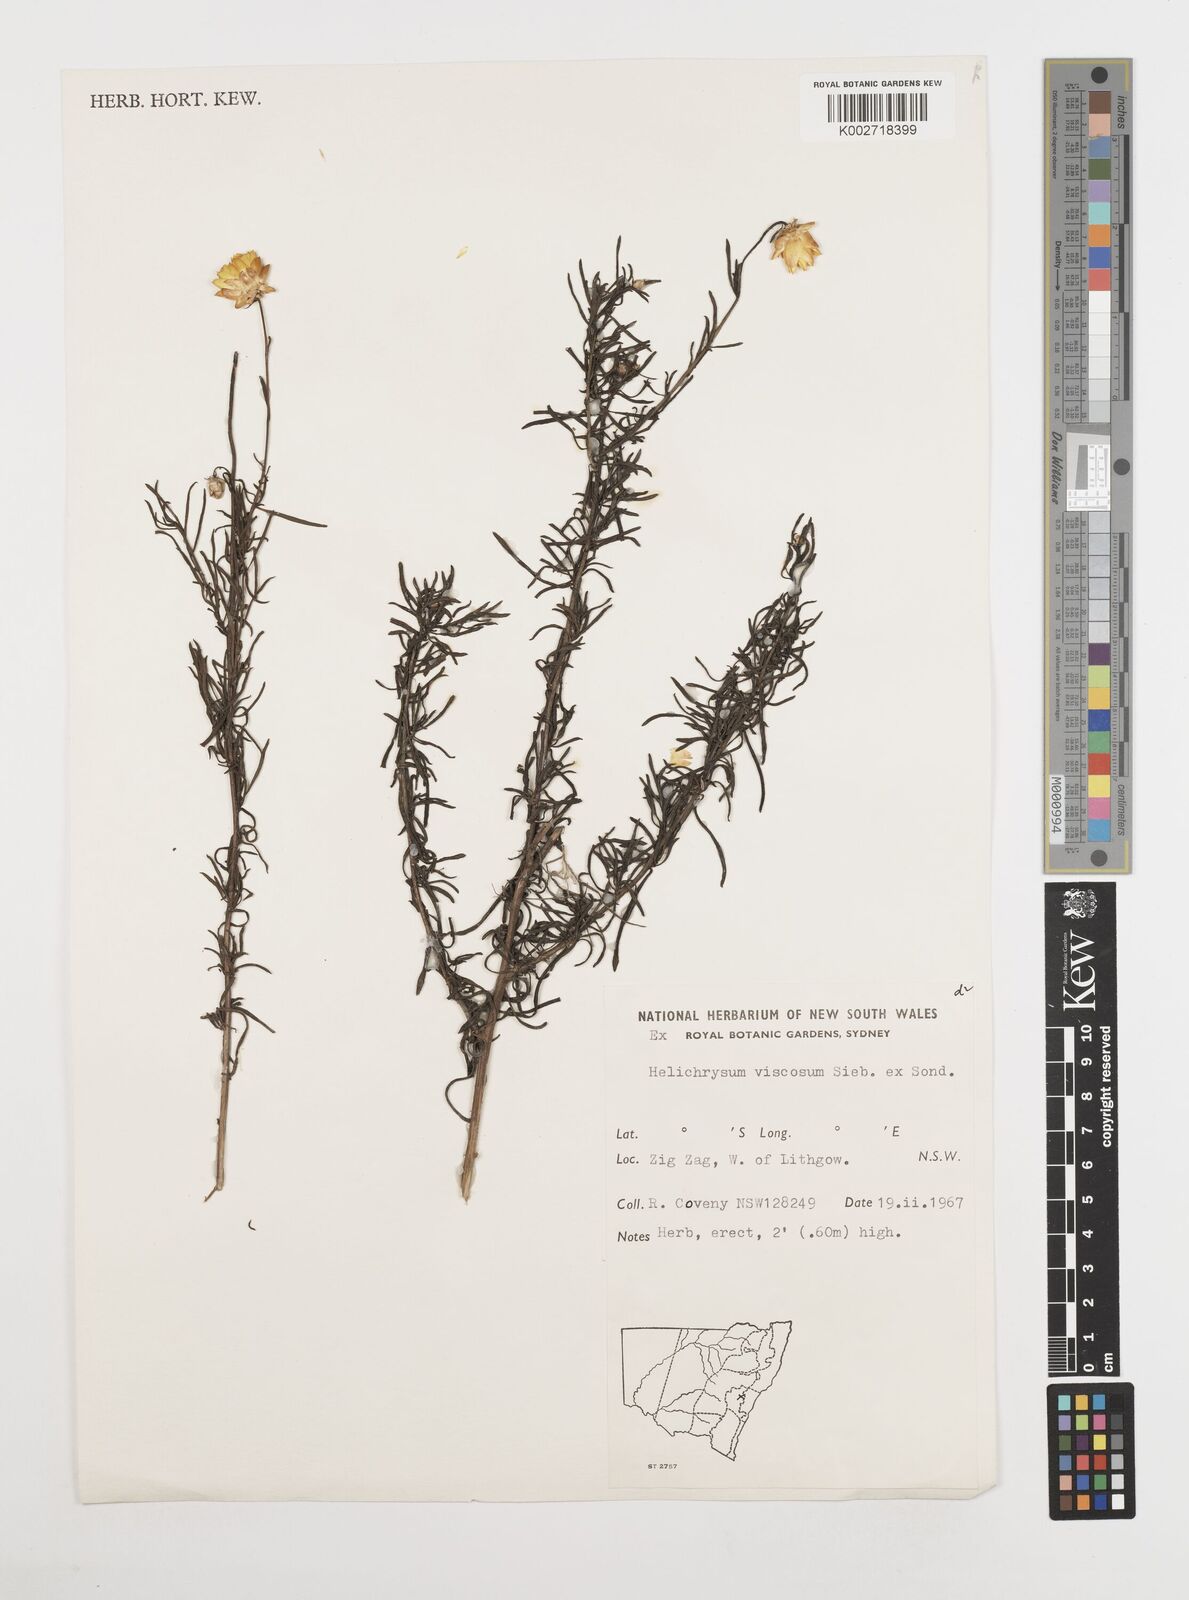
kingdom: Plantae
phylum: Tracheophyta
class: Magnoliopsida
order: Asterales
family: Asteraceae
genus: Xerochrysum
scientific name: Xerochrysum viscosum
